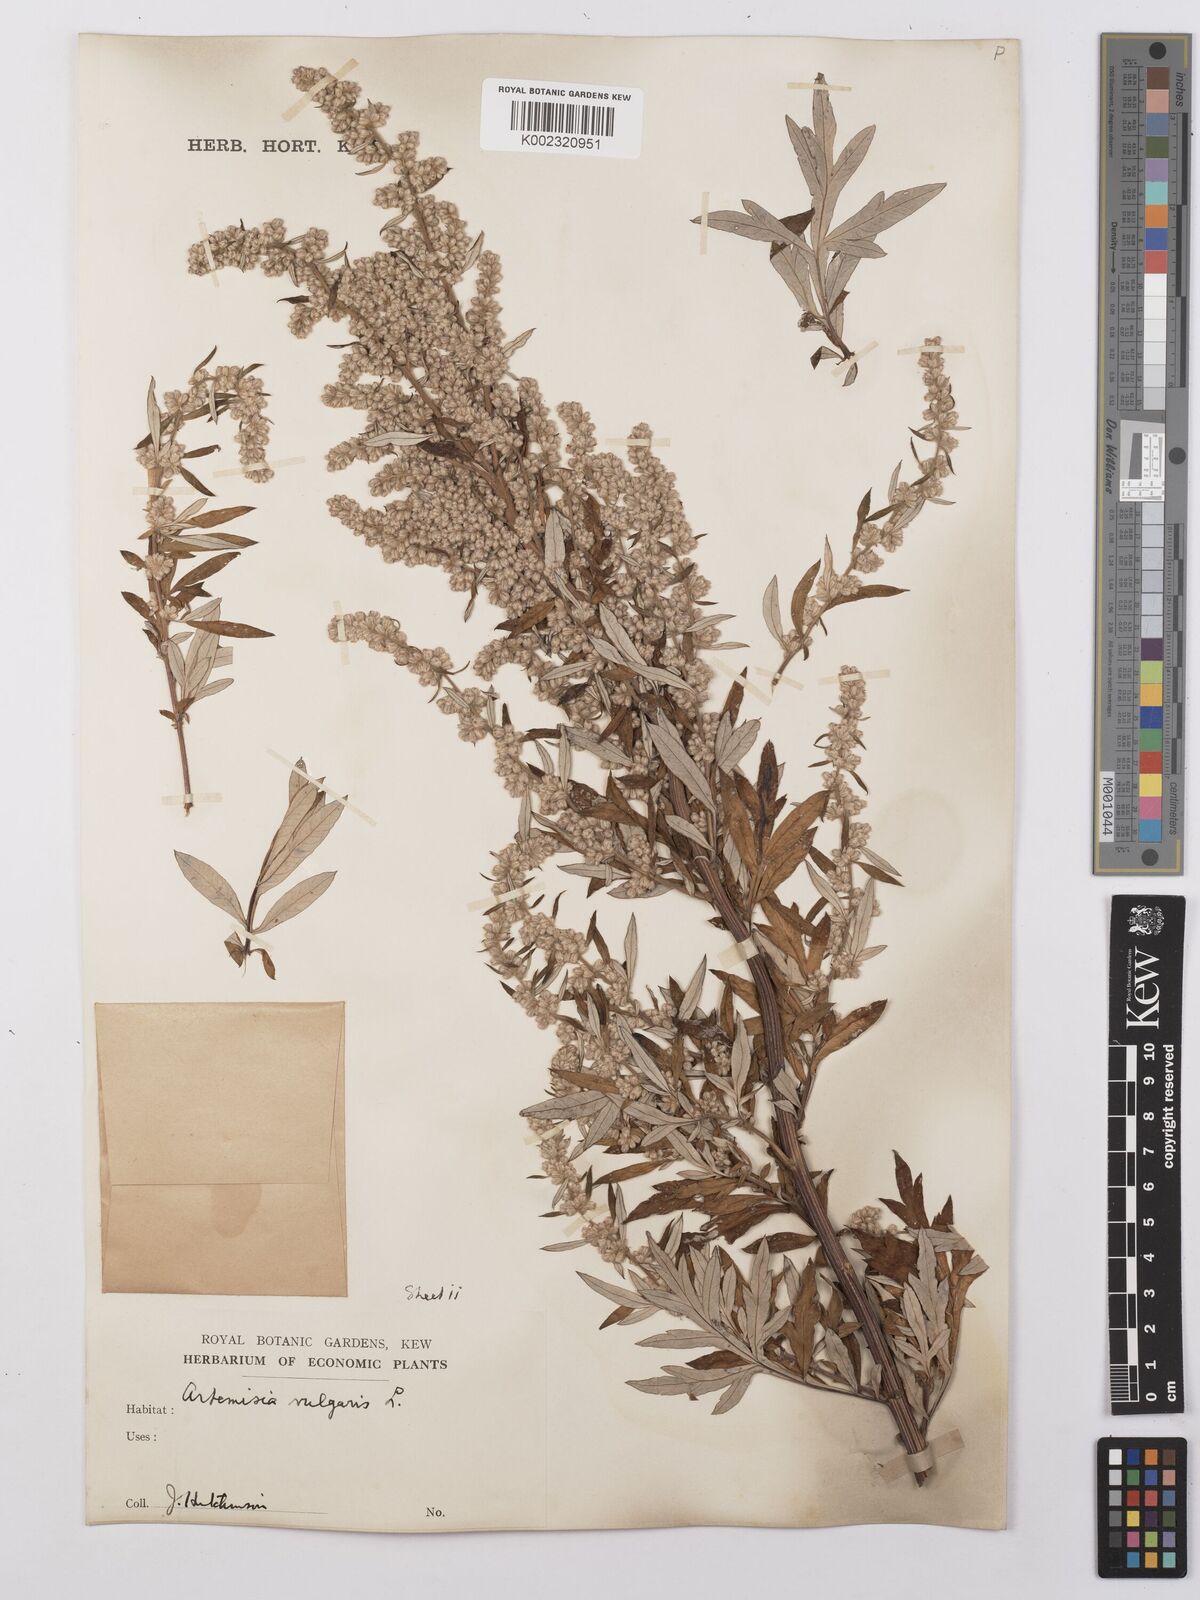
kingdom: Plantae
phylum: Tracheophyta
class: Magnoliopsida
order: Asterales
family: Asteraceae
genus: Artemisia
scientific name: Artemisia vulgaris
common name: Mugwort
